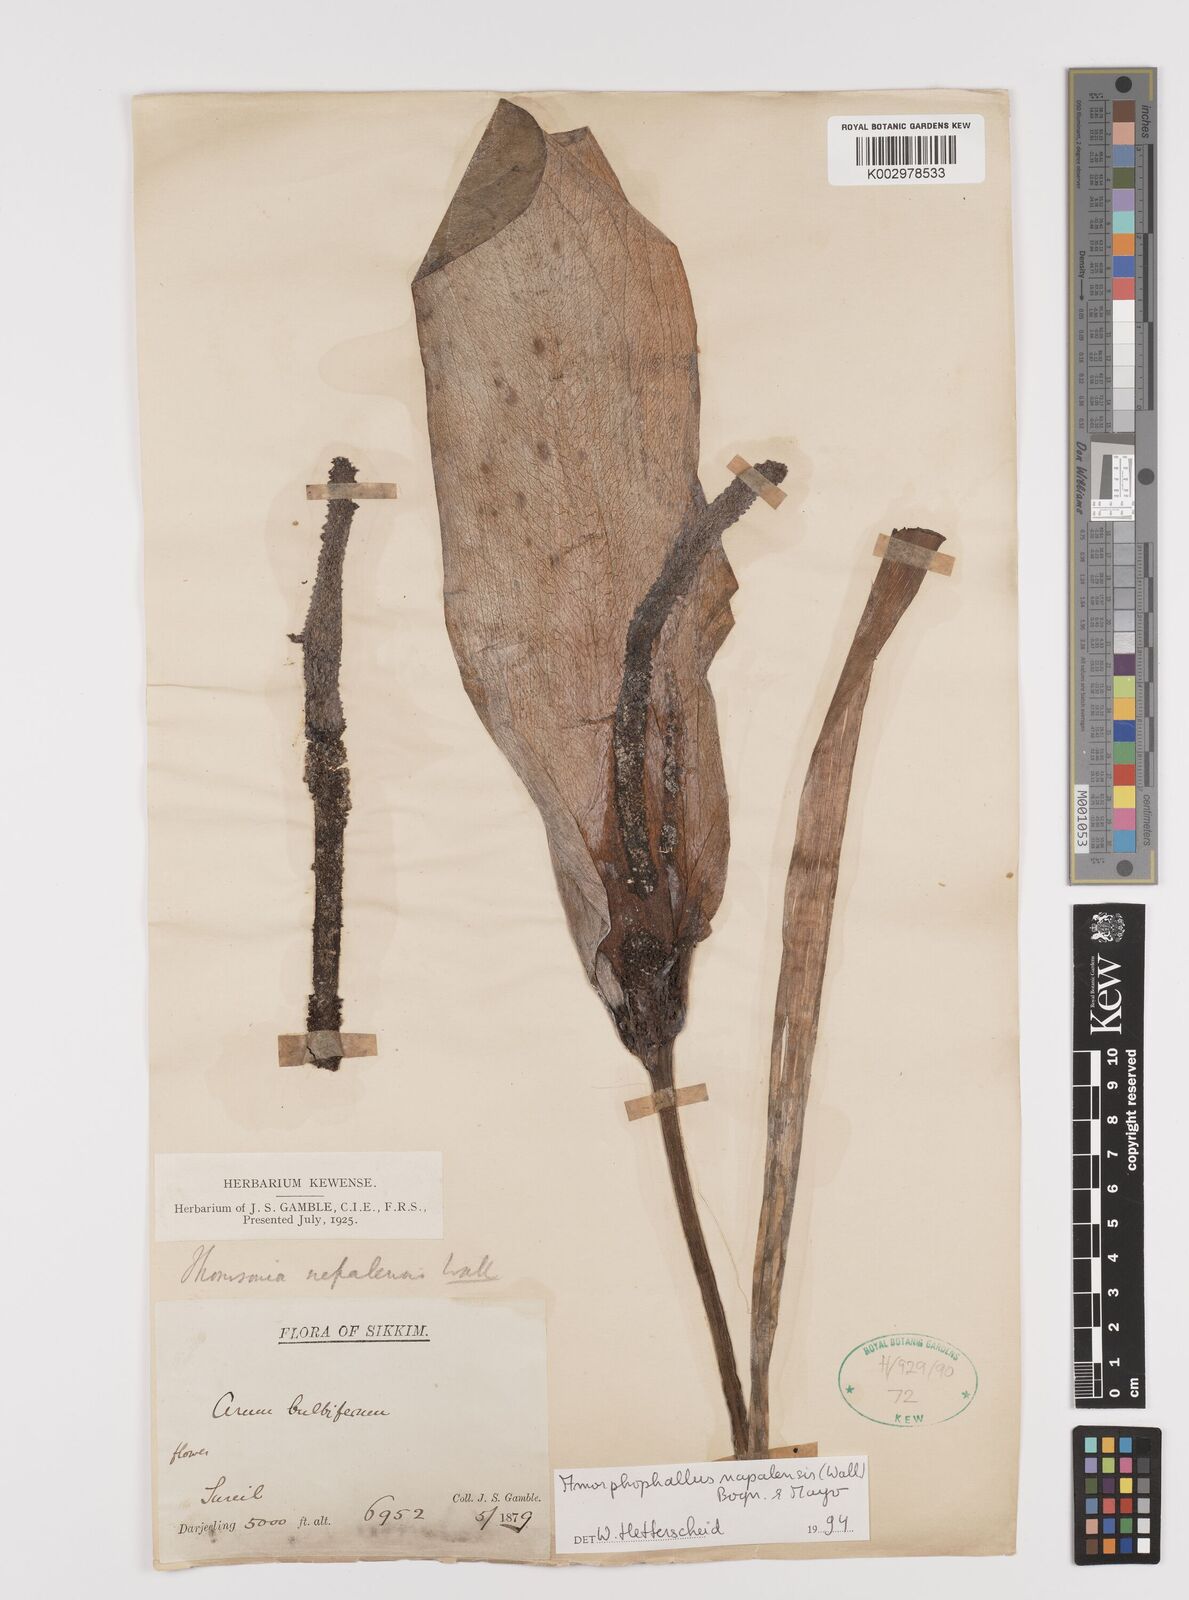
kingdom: Plantae
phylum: Tracheophyta
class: Liliopsida
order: Alismatales
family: Araceae
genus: Amorphophallus
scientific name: Amorphophallus napalensis
